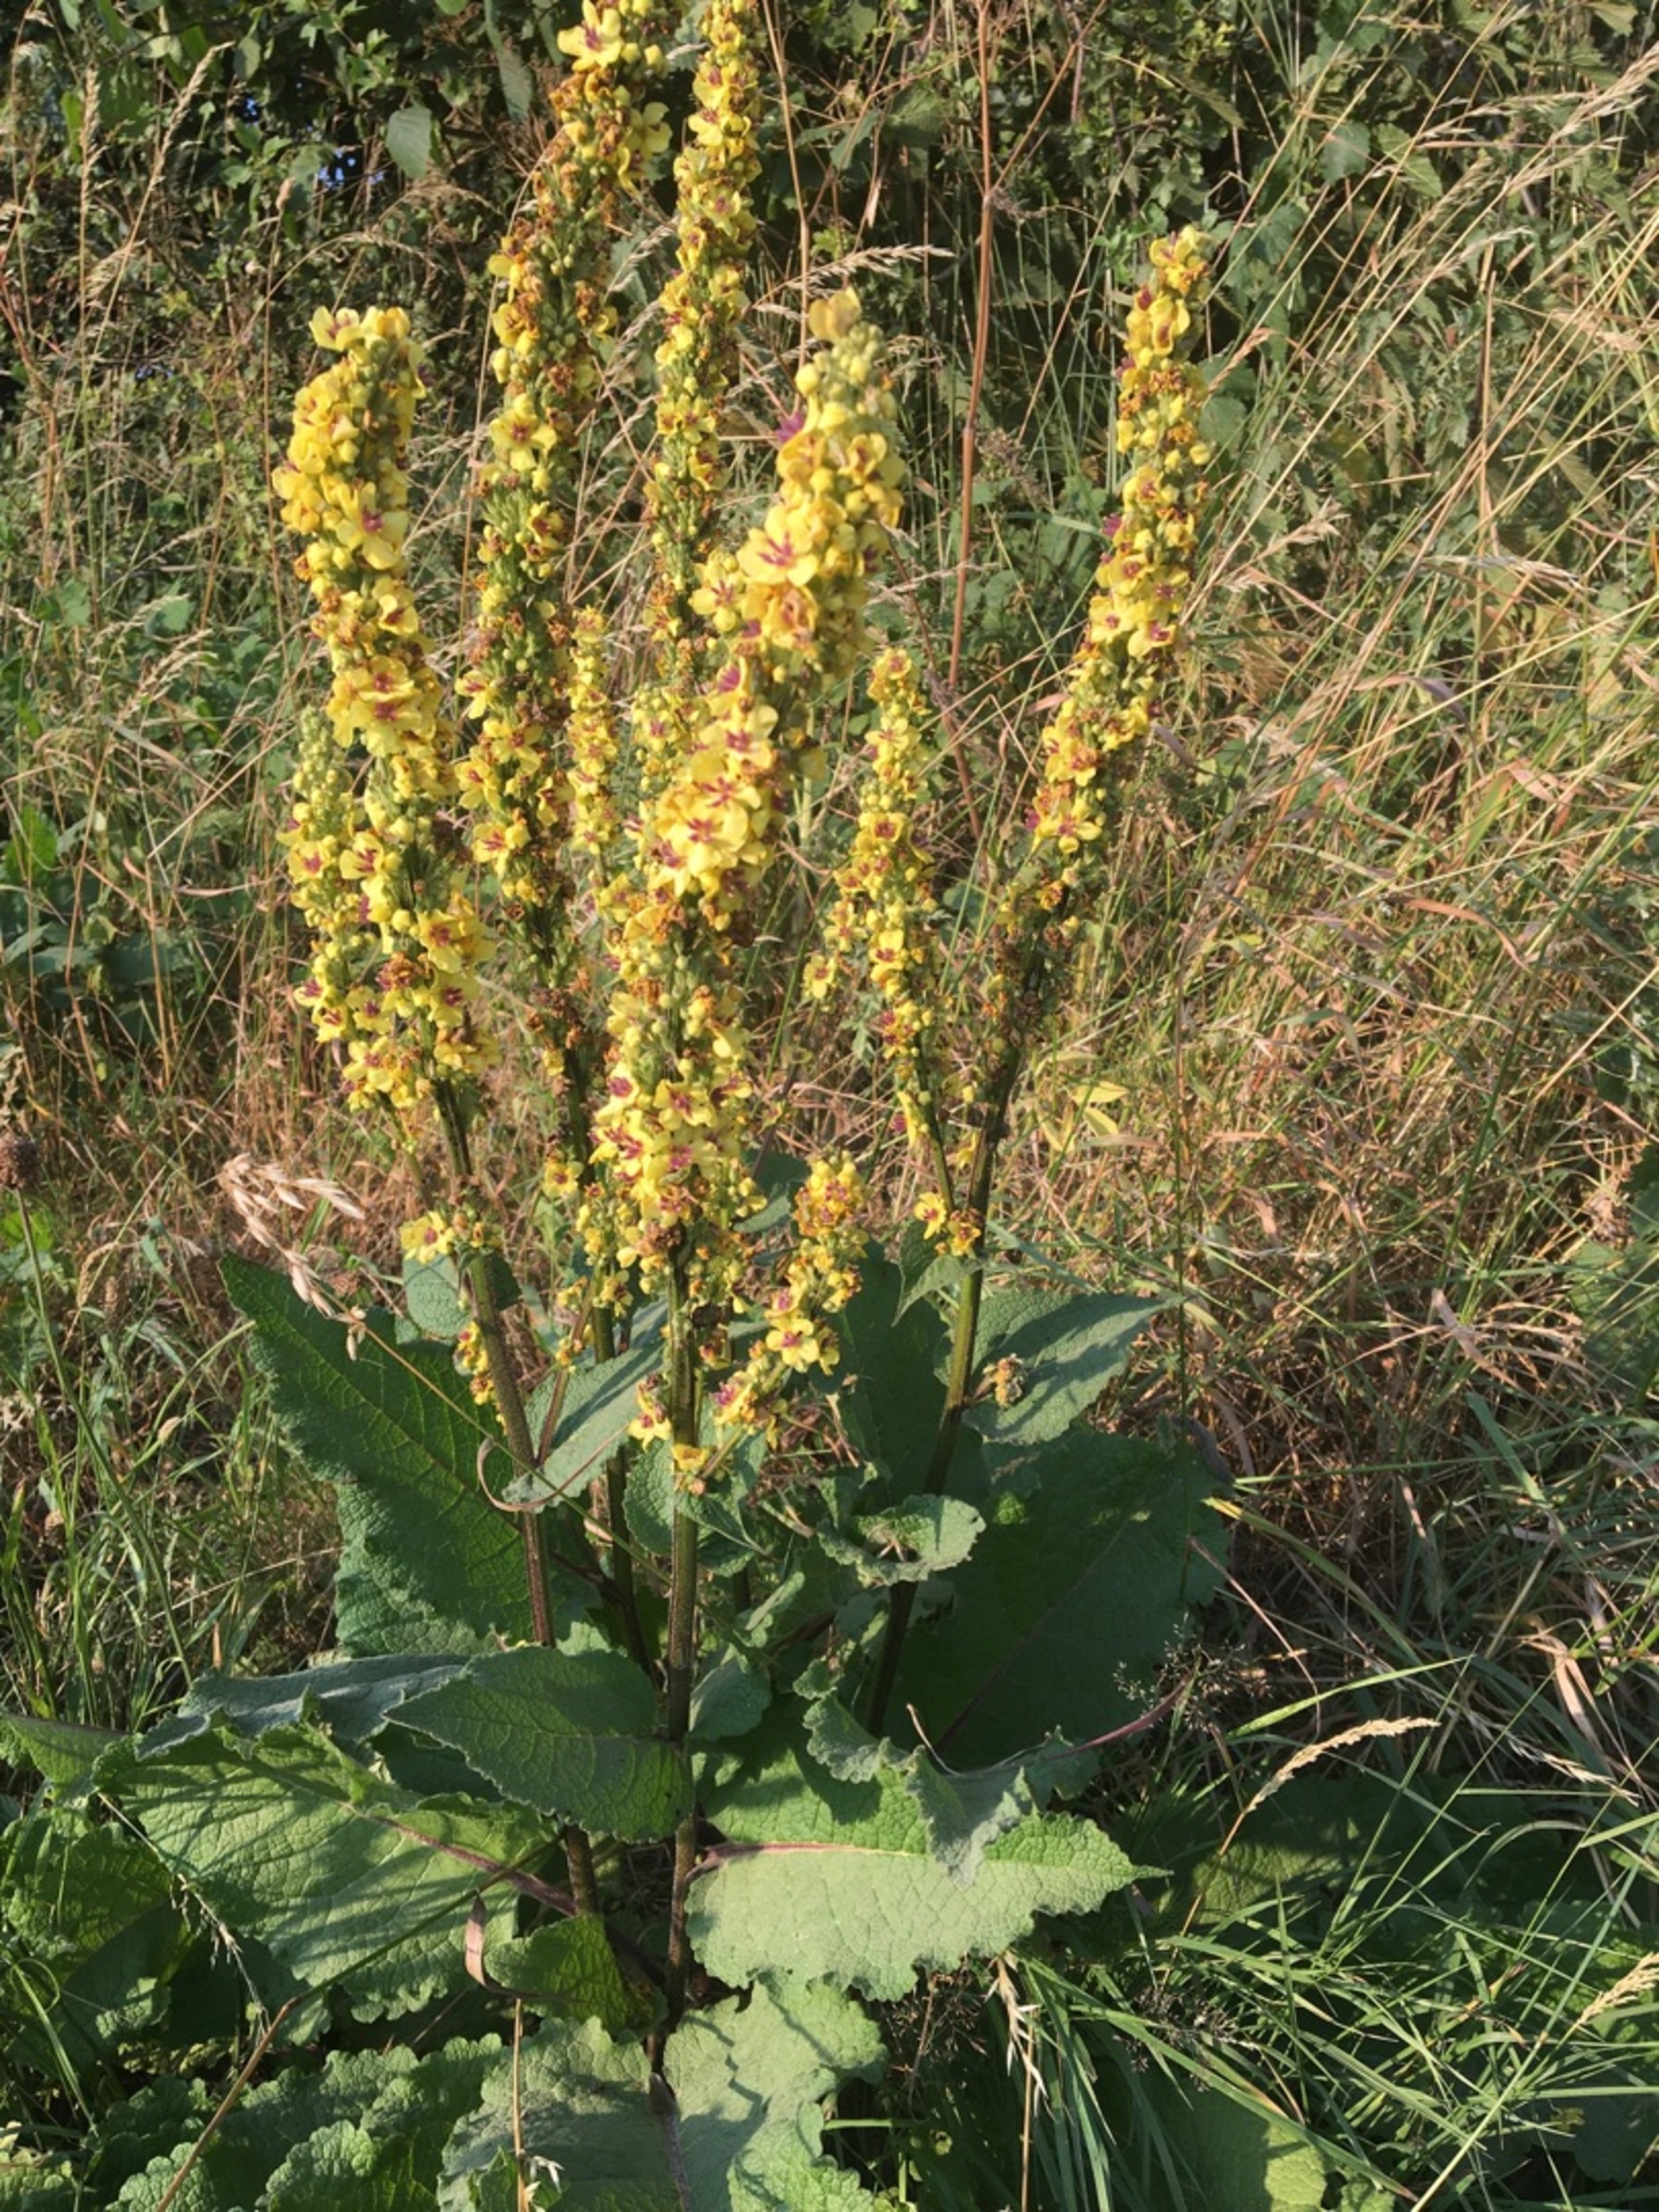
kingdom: Plantae
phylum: Tracheophyta
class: Magnoliopsida
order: Lamiales
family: Scrophulariaceae
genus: Verbascum
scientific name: Verbascum nigrum
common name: Mørk kongelys
